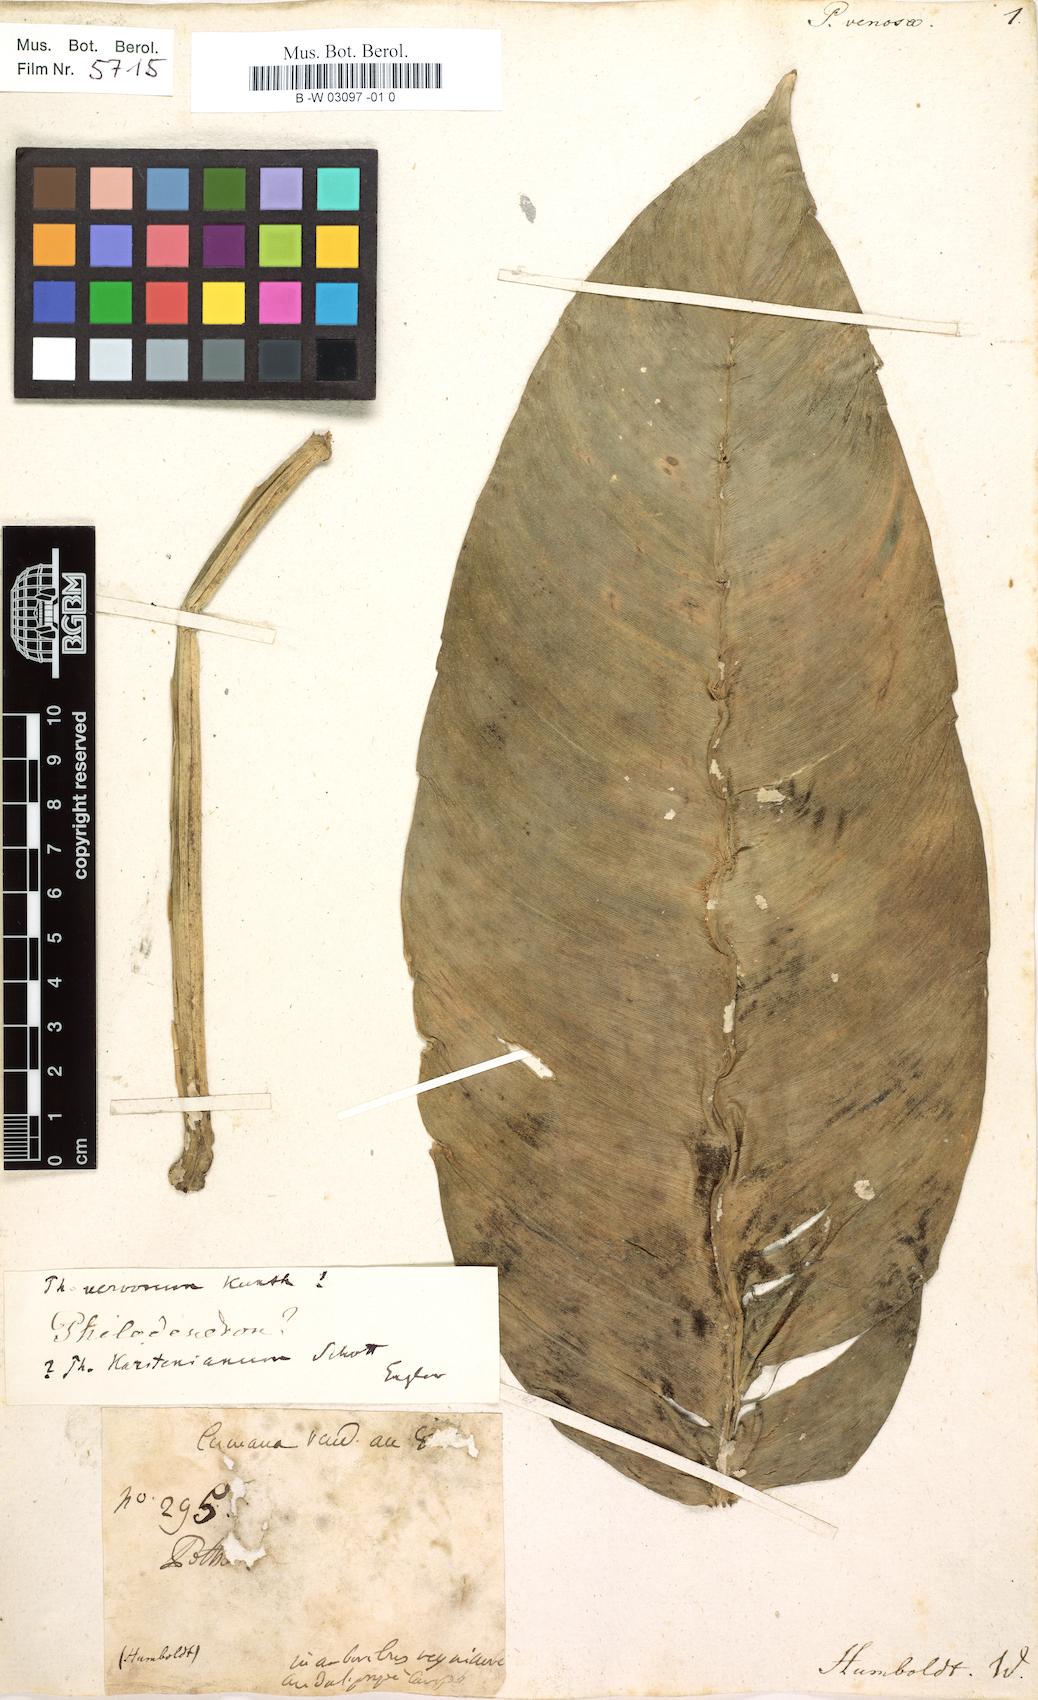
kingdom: Plantae
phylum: Tracheophyta
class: Liliopsida
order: Alismatales
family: Araceae
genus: Philodendron
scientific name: Philodendron venosum
